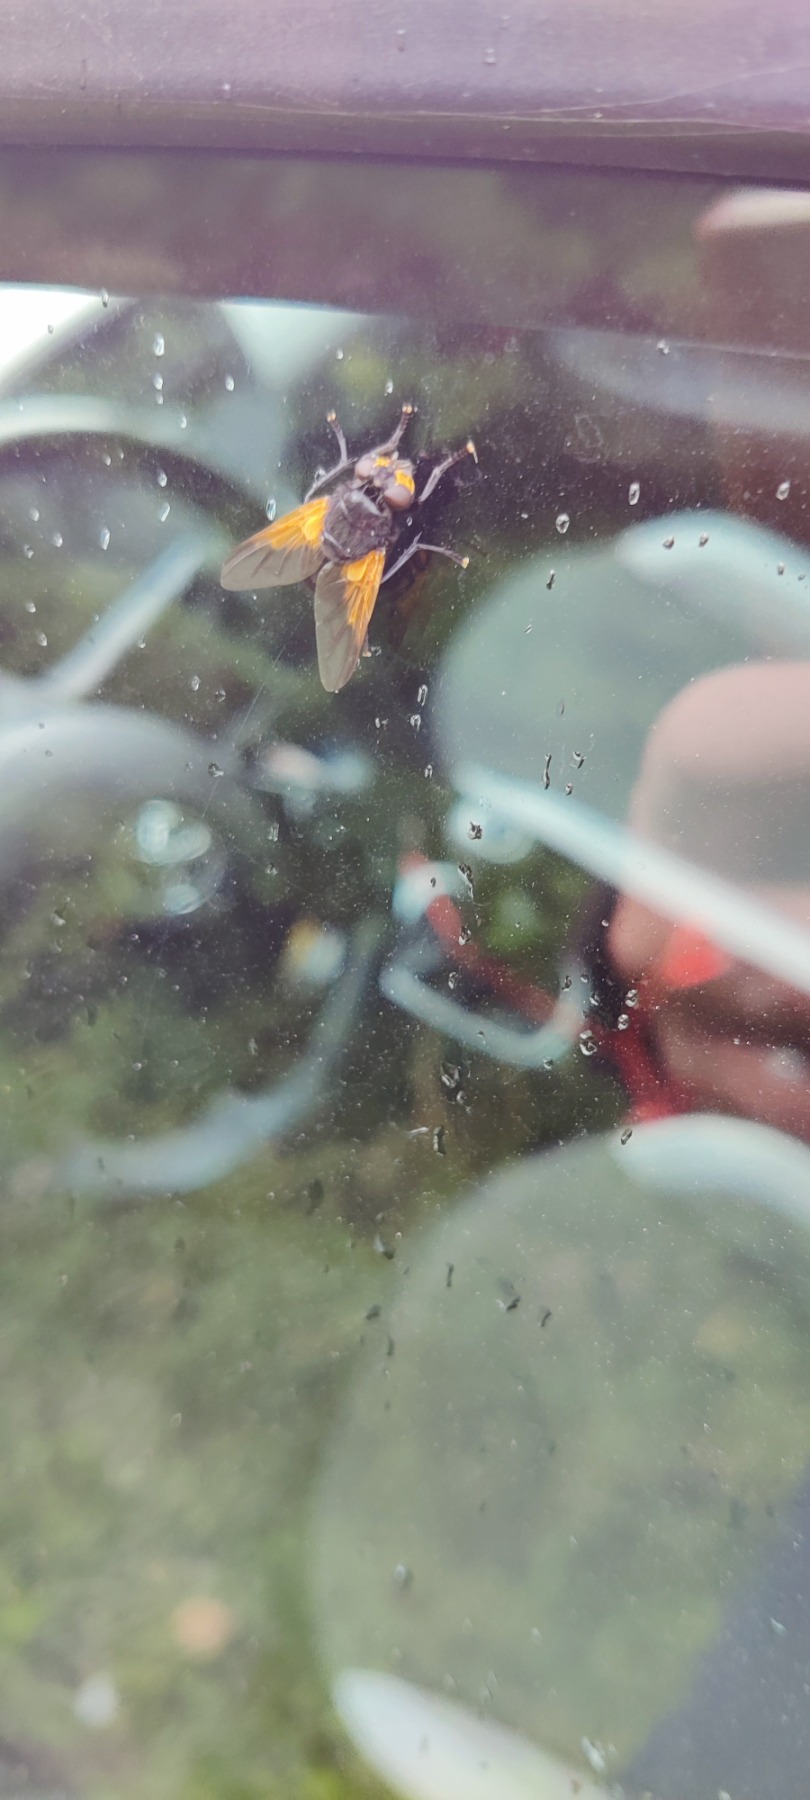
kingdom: Animalia
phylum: Arthropoda
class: Insecta
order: Diptera
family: Muscidae
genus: Mesembrina
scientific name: Mesembrina meridiana
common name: Gulvinget flue
